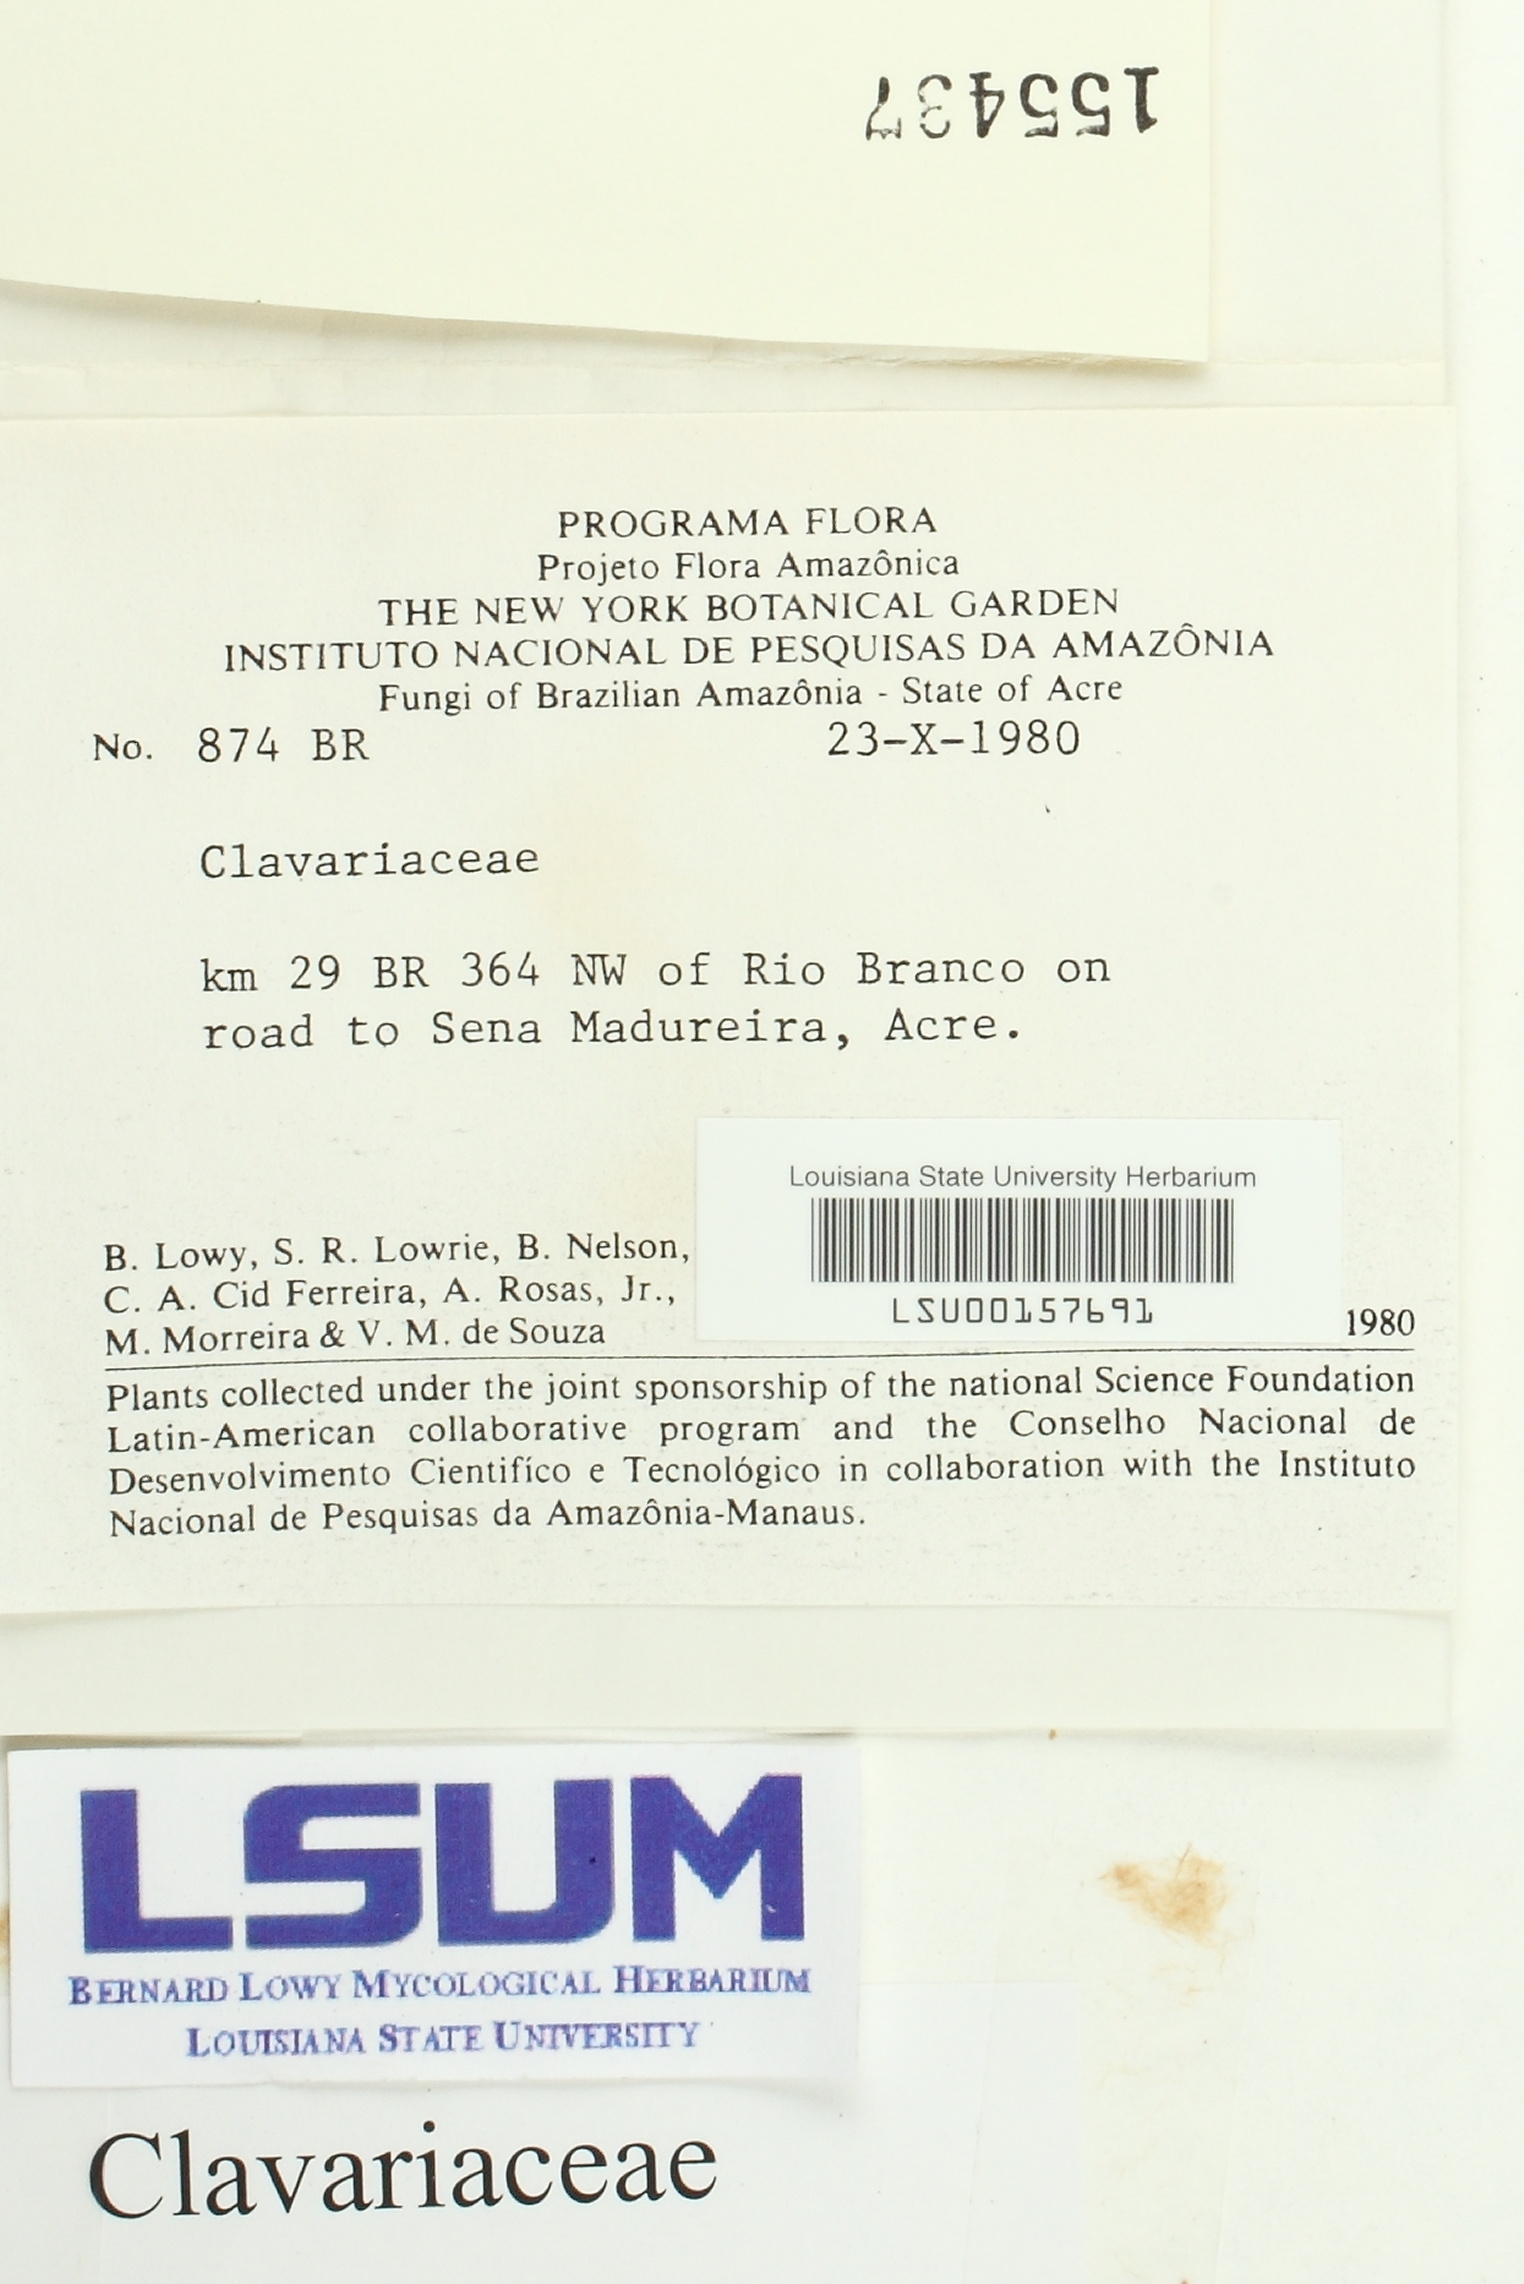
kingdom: Fungi
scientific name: Fungi
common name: Fungi
